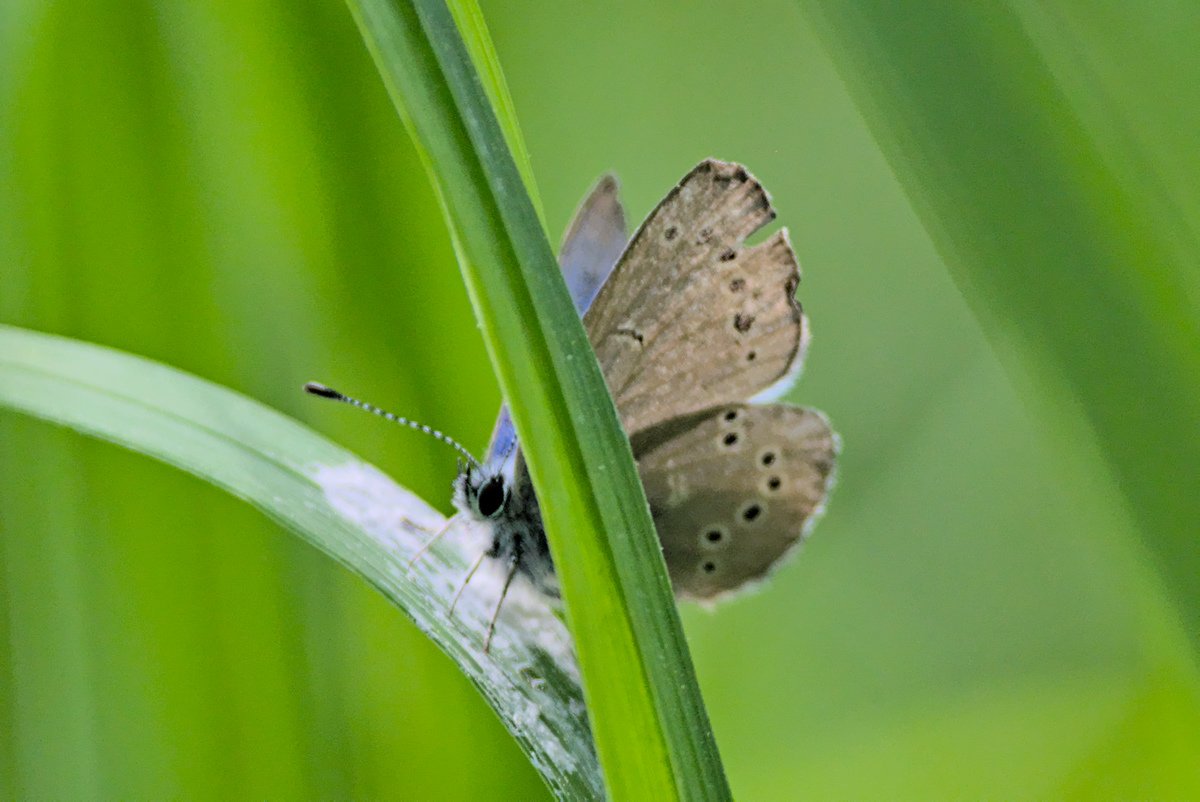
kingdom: Animalia
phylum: Arthropoda
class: Insecta
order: Lepidoptera
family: Lycaenidae
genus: Glaucopsyche
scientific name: Glaucopsyche lygdamus
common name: Silvery Blue
